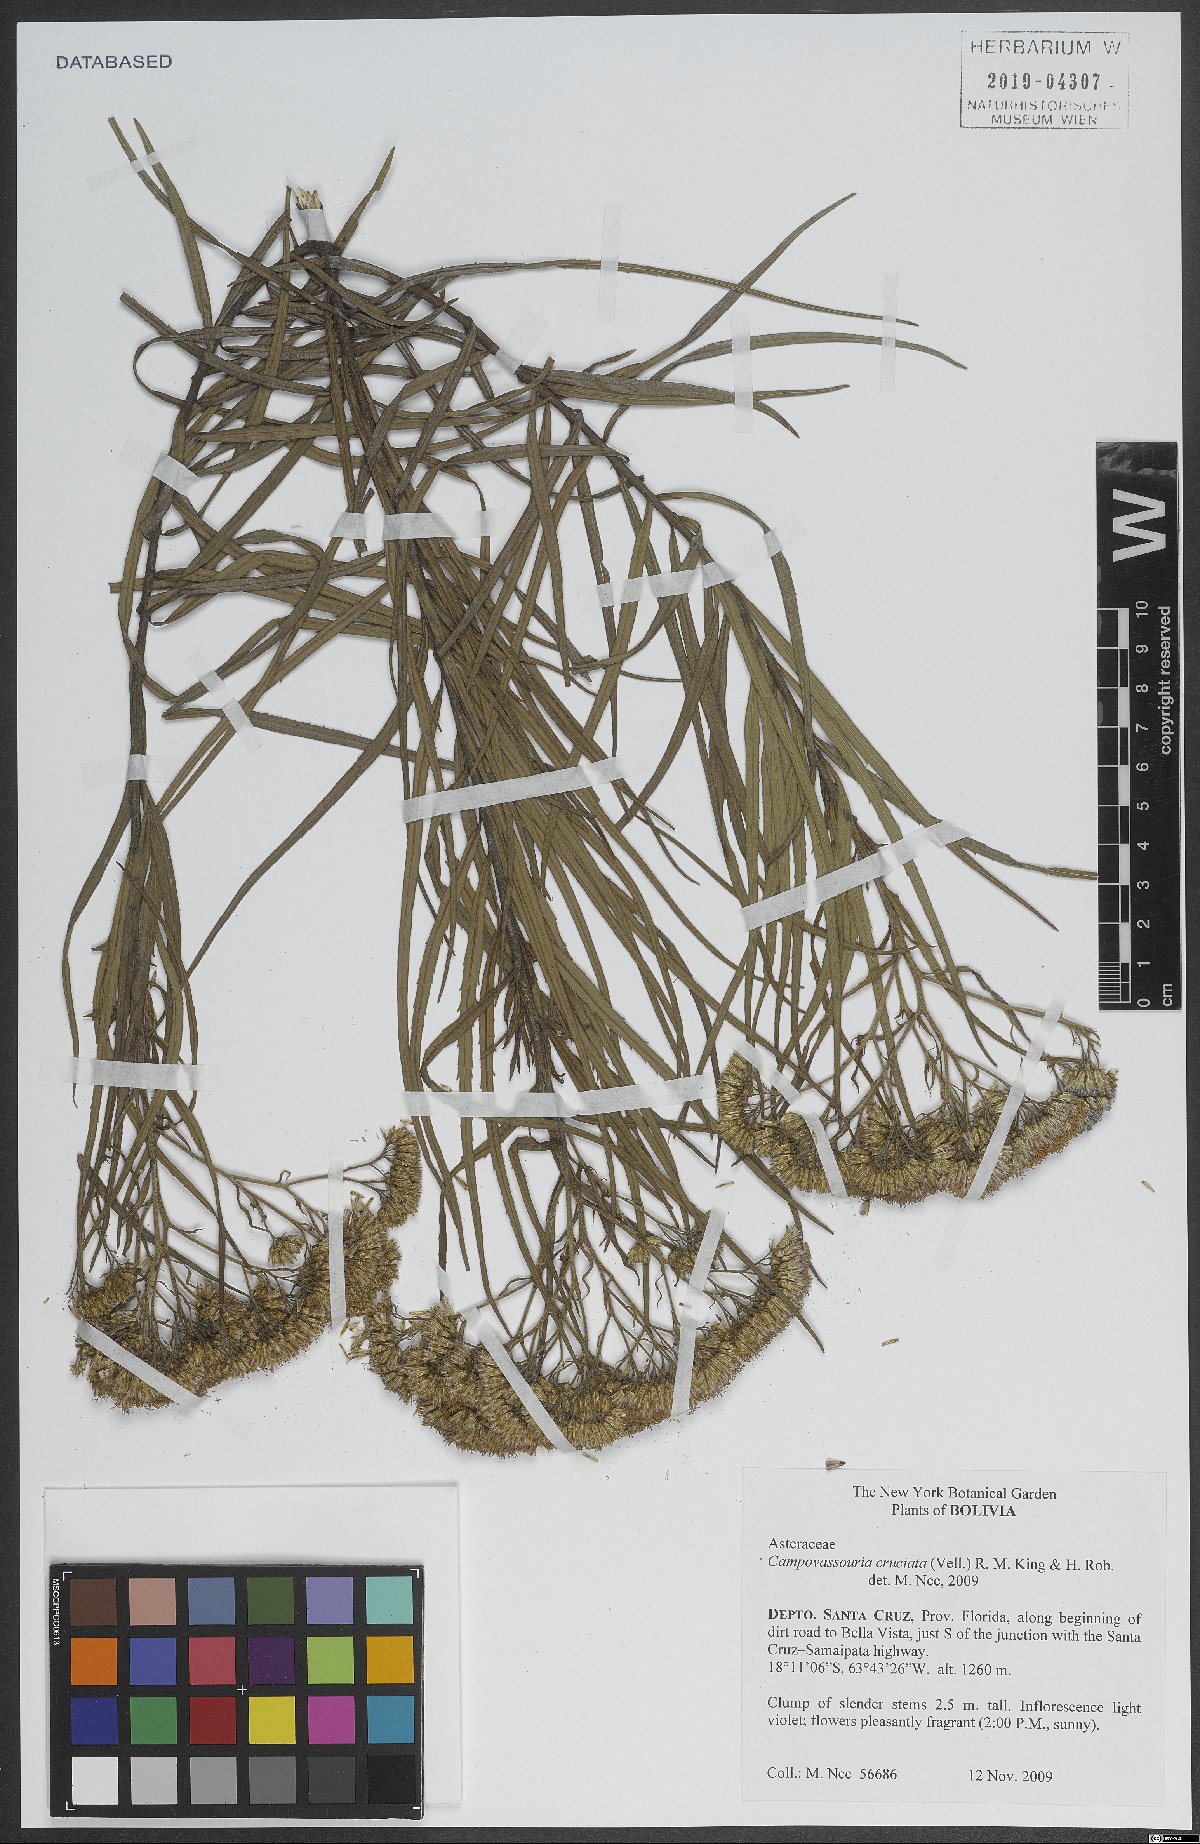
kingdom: Plantae
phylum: Tracheophyta
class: Magnoliopsida
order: Asterales
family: Asteraceae
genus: Campovassouria
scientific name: Campovassouria cruciata
